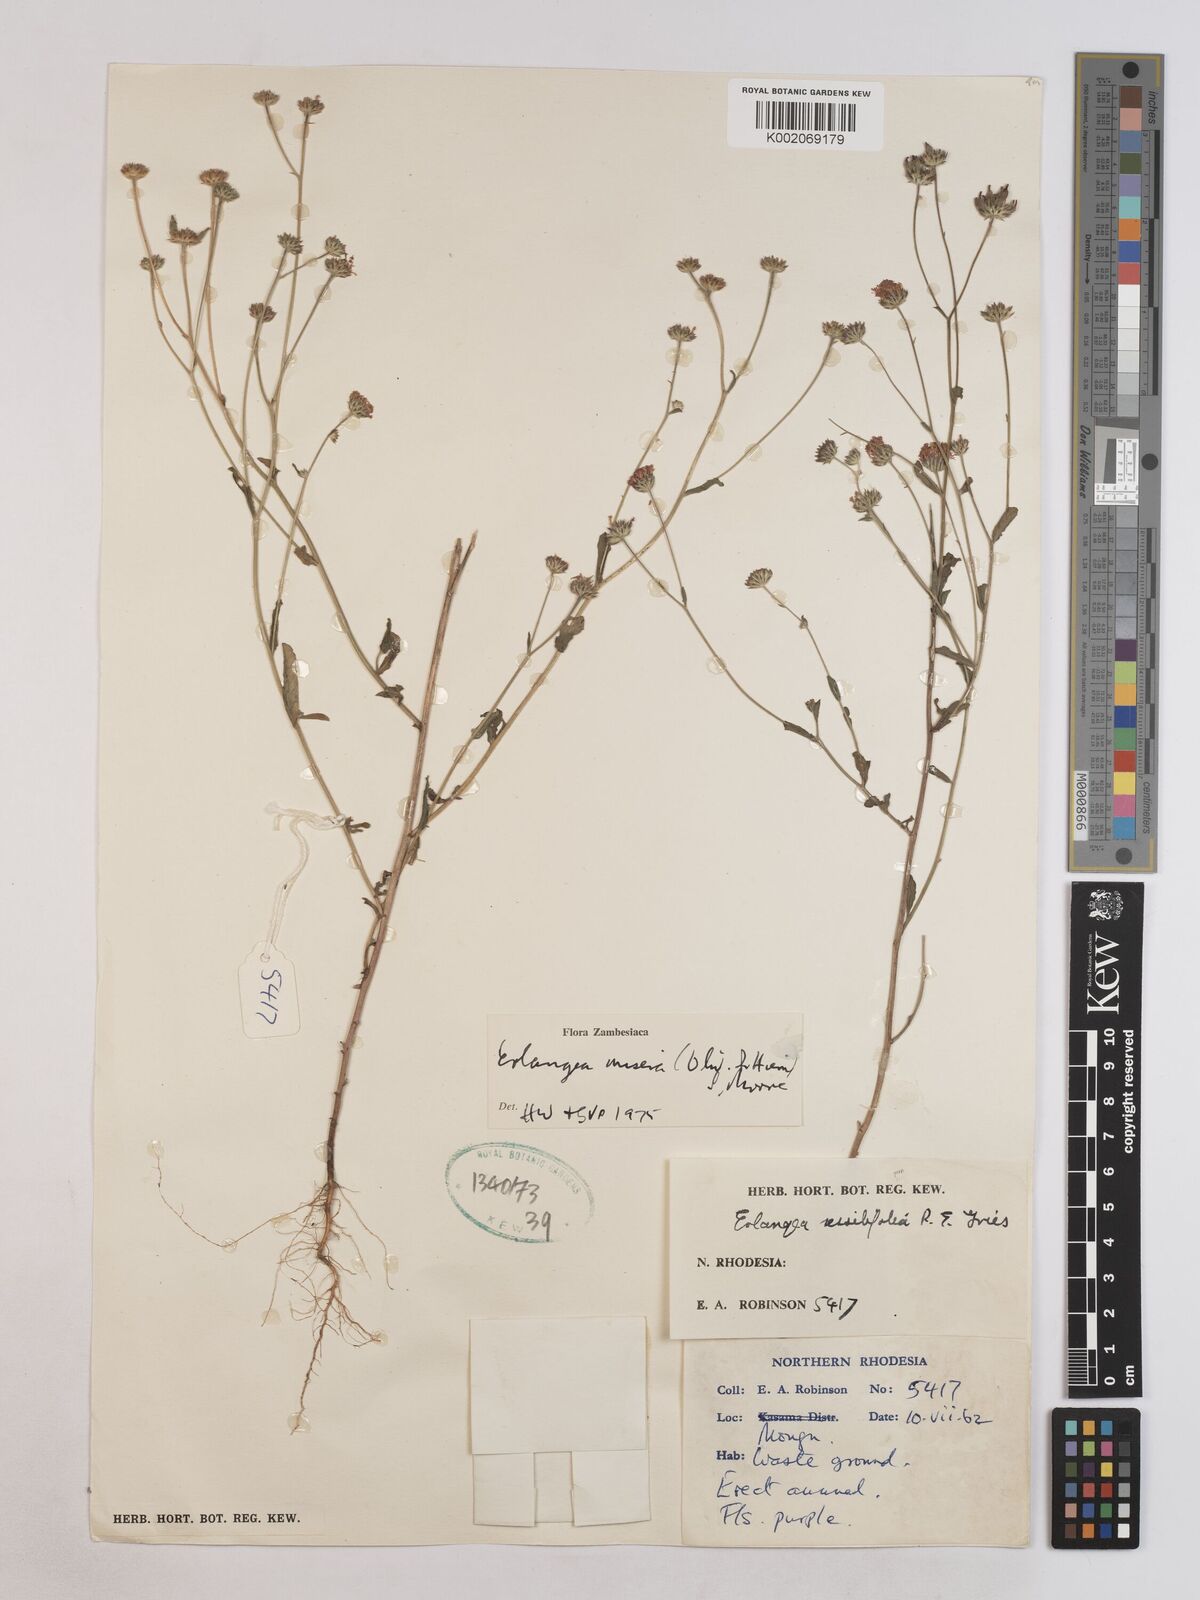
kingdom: Plantae
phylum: Tracheophyta
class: Magnoliopsida
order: Asterales
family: Asteraceae
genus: Erlangea
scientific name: Erlangea misera
